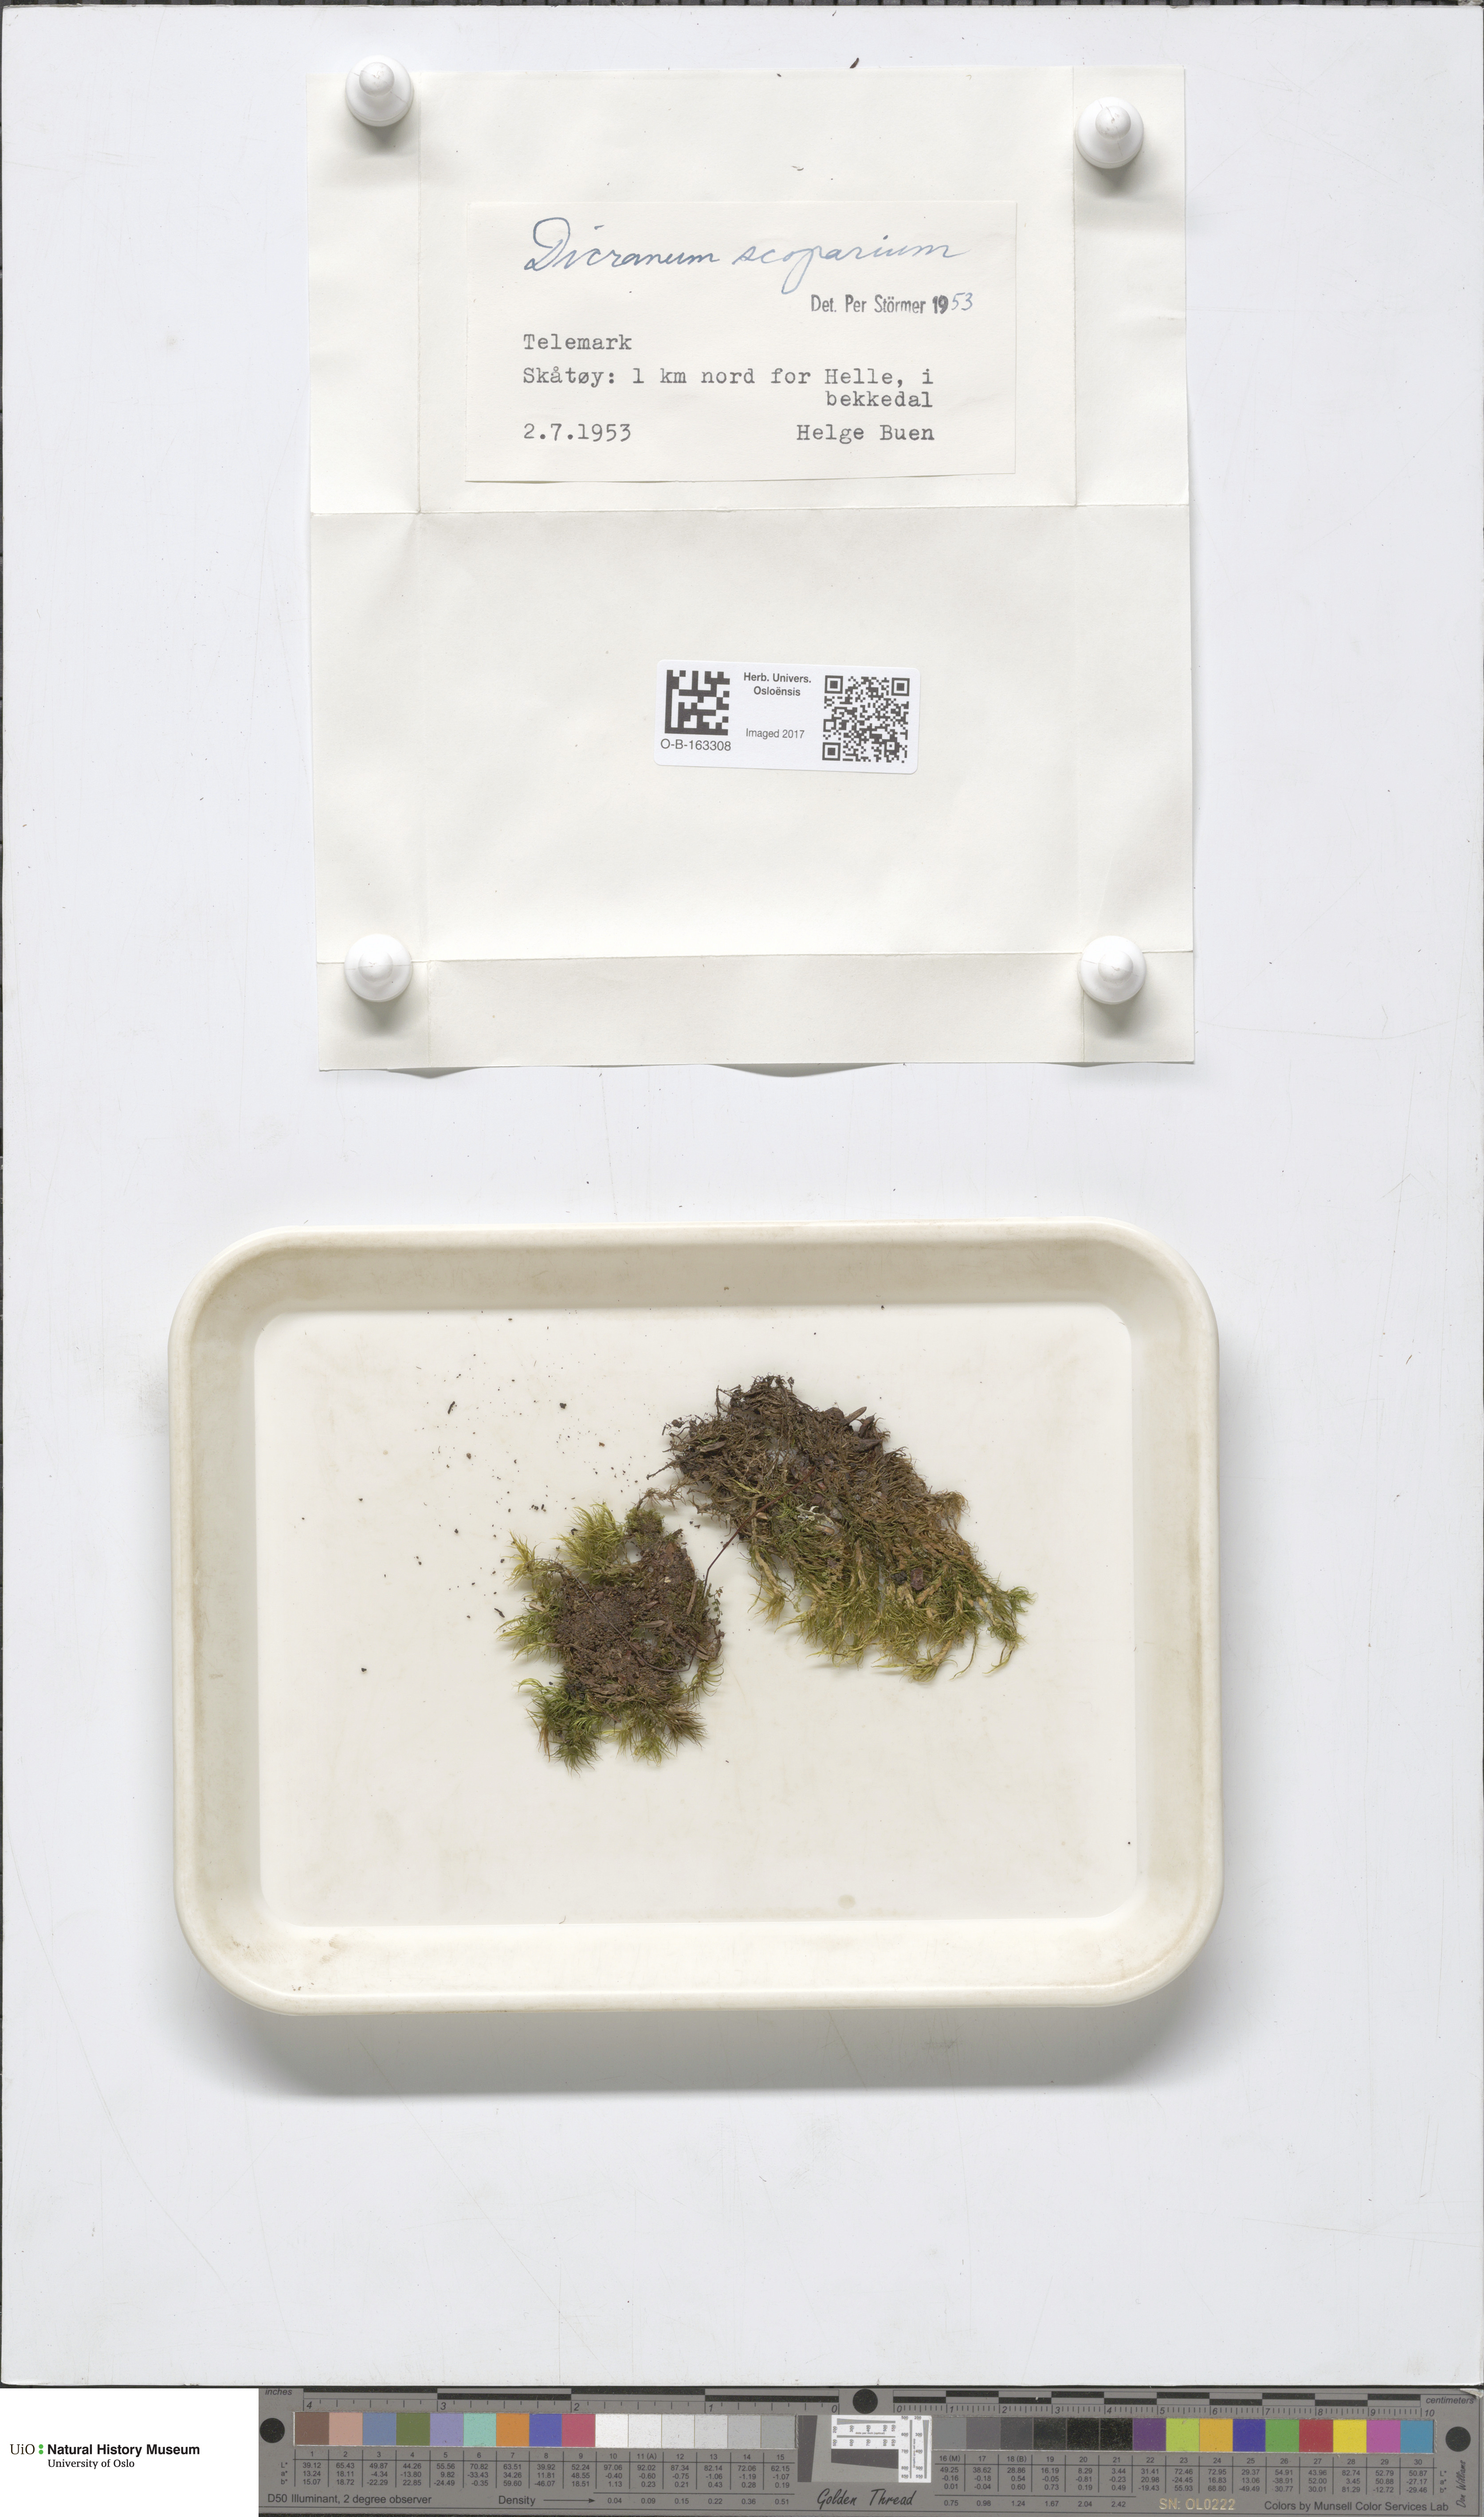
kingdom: Plantae
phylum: Bryophyta
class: Bryopsida
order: Dicranales
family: Dicranaceae
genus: Dicranum
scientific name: Dicranum scoparium
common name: Broom fork-moss
